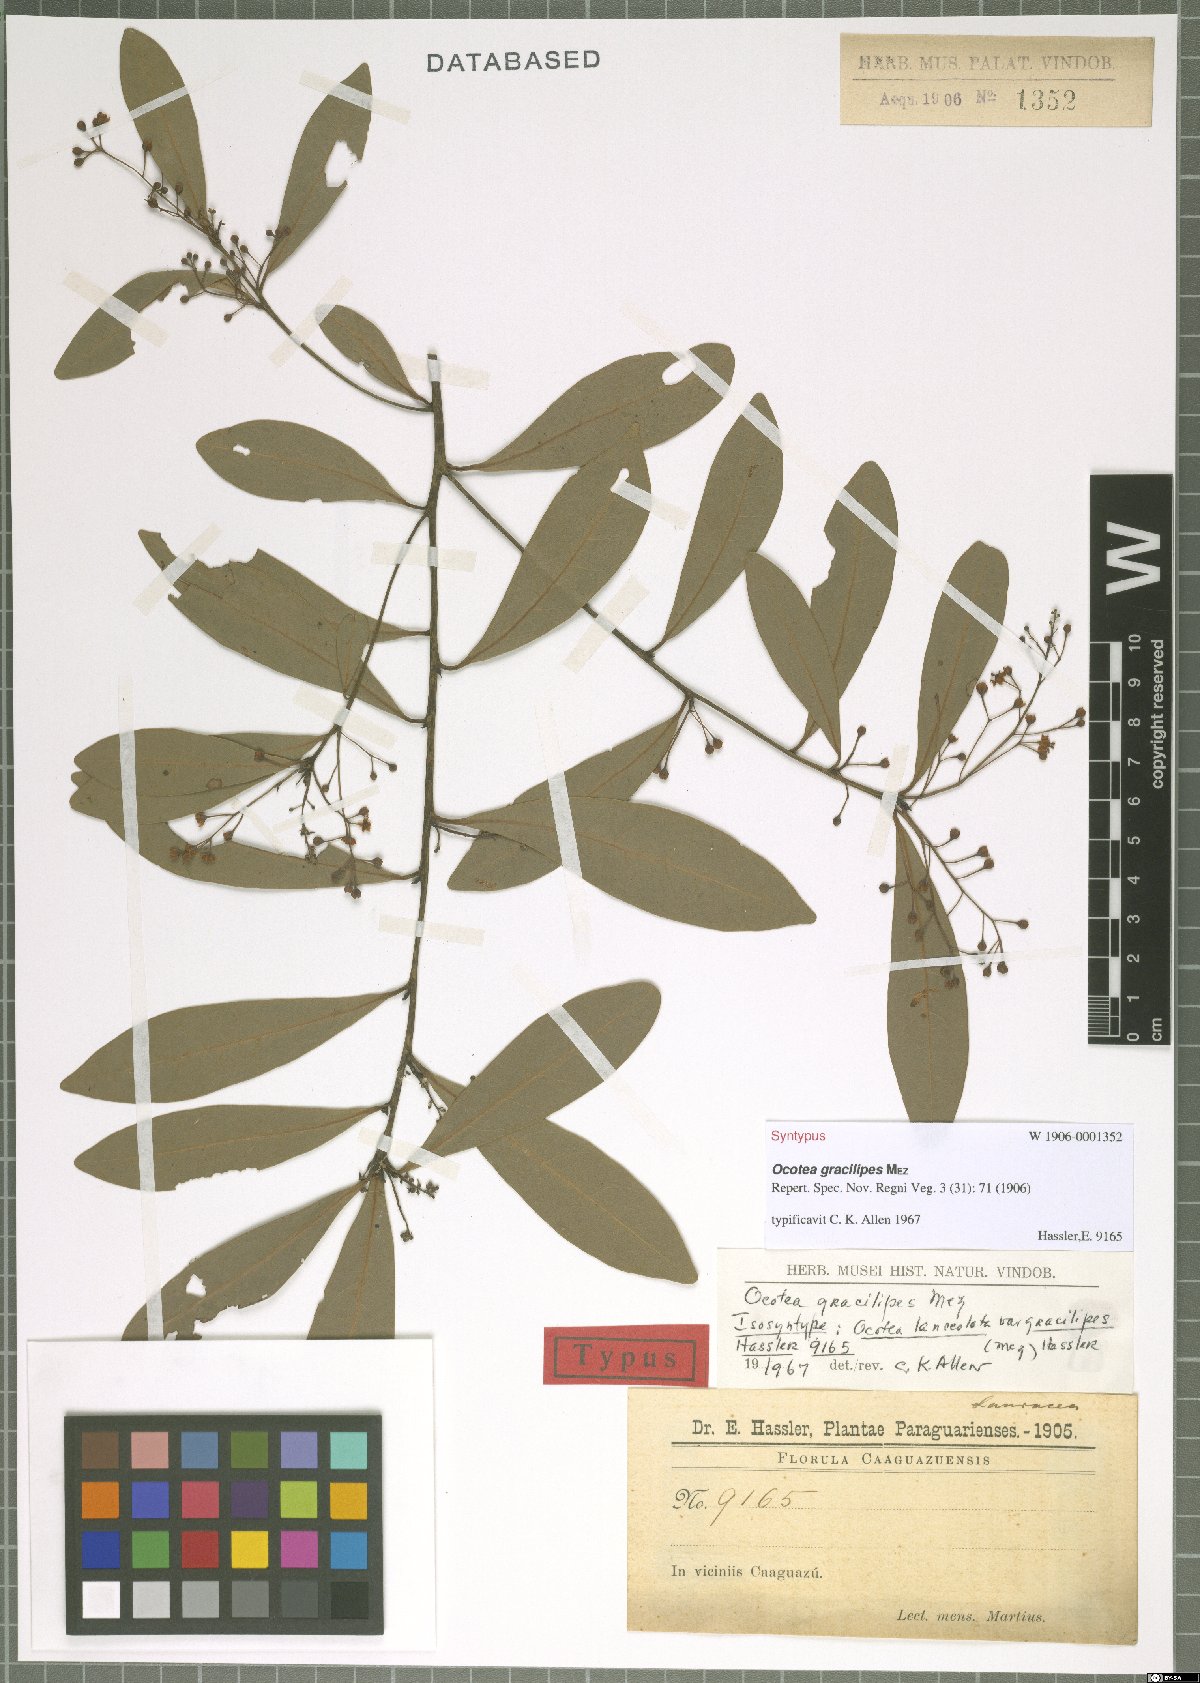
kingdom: Plantae
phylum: Tracheophyta
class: Magnoliopsida
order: Laurales
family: Lauraceae
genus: Ocotea
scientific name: Ocotea lancifolia
